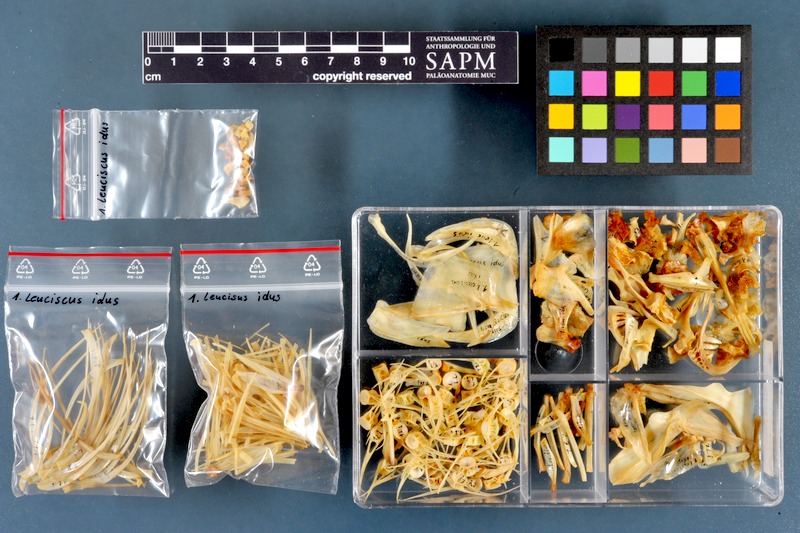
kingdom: Animalia
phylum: Chordata
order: Cypriniformes
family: Cyprinidae
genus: Leuciscus
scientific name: Leuciscus idus
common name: Ide
